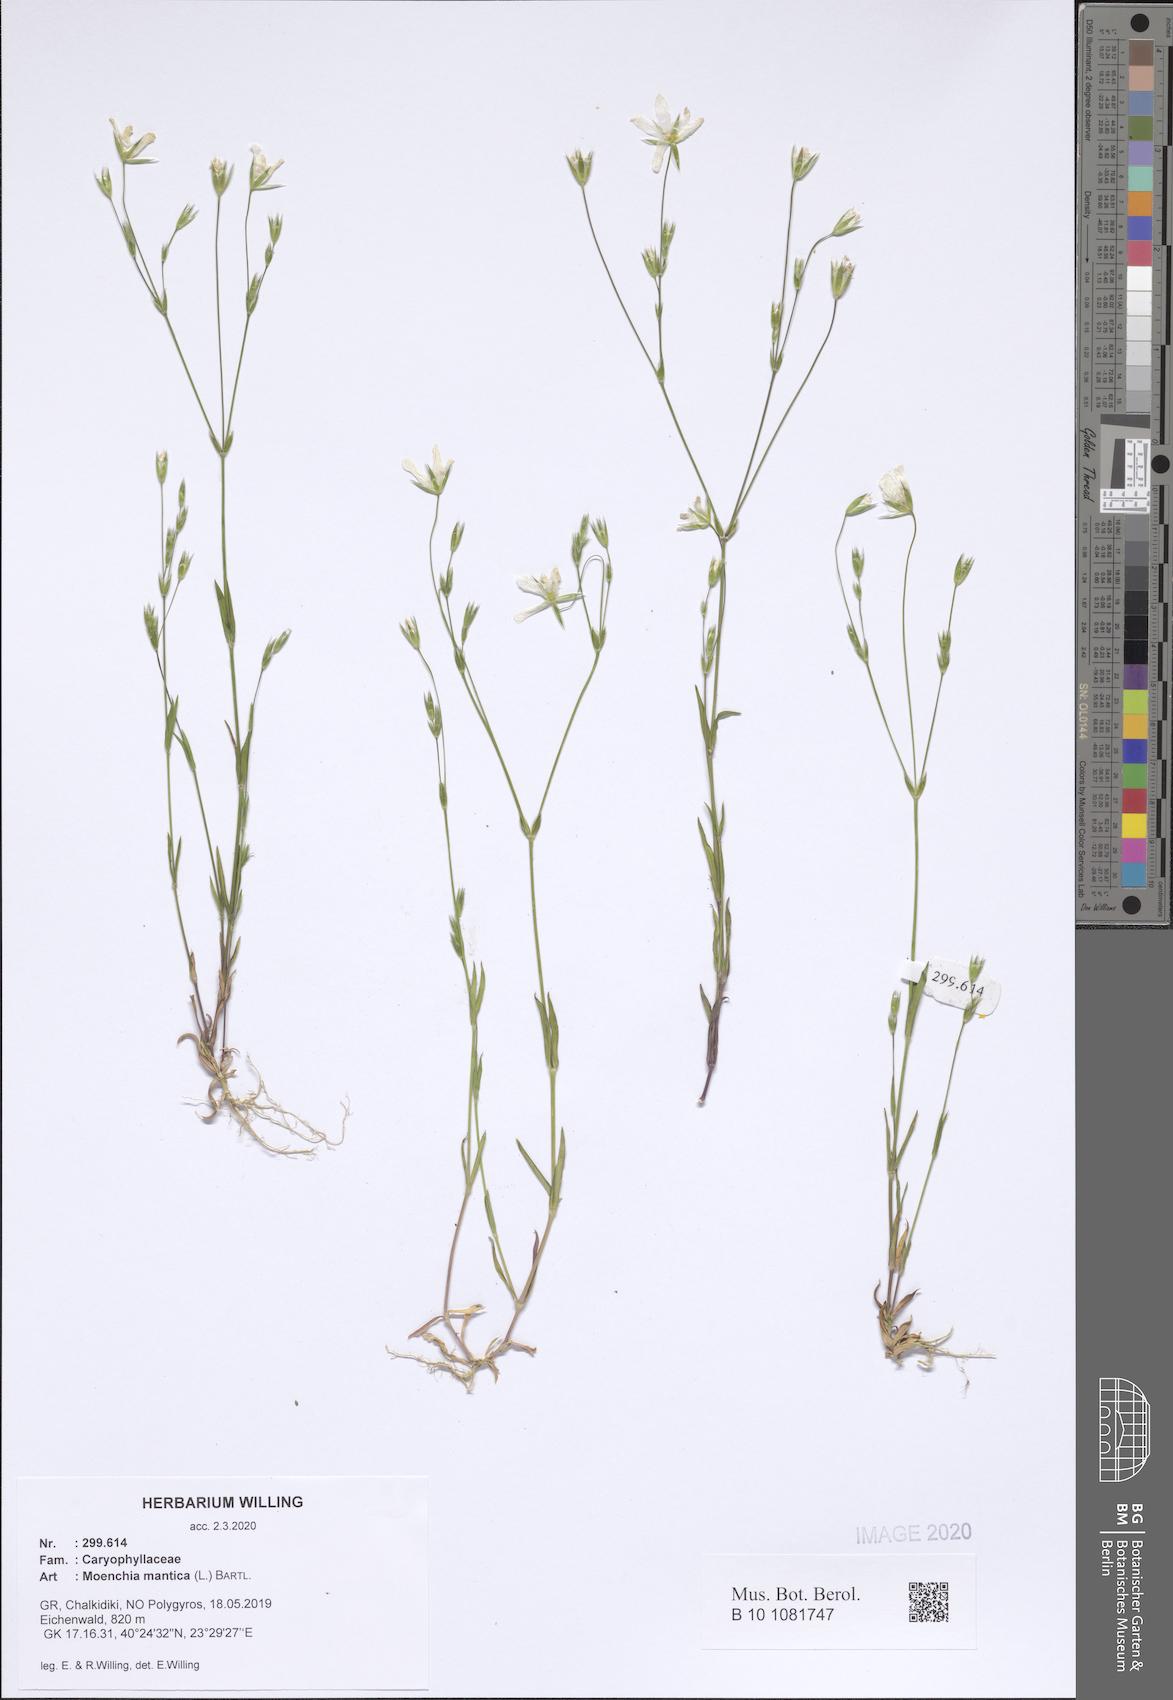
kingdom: Plantae
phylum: Tracheophyta
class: Magnoliopsida
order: Caryophyllales
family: Caryophyllaceae
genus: Moenchia
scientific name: Moenchia mantica
